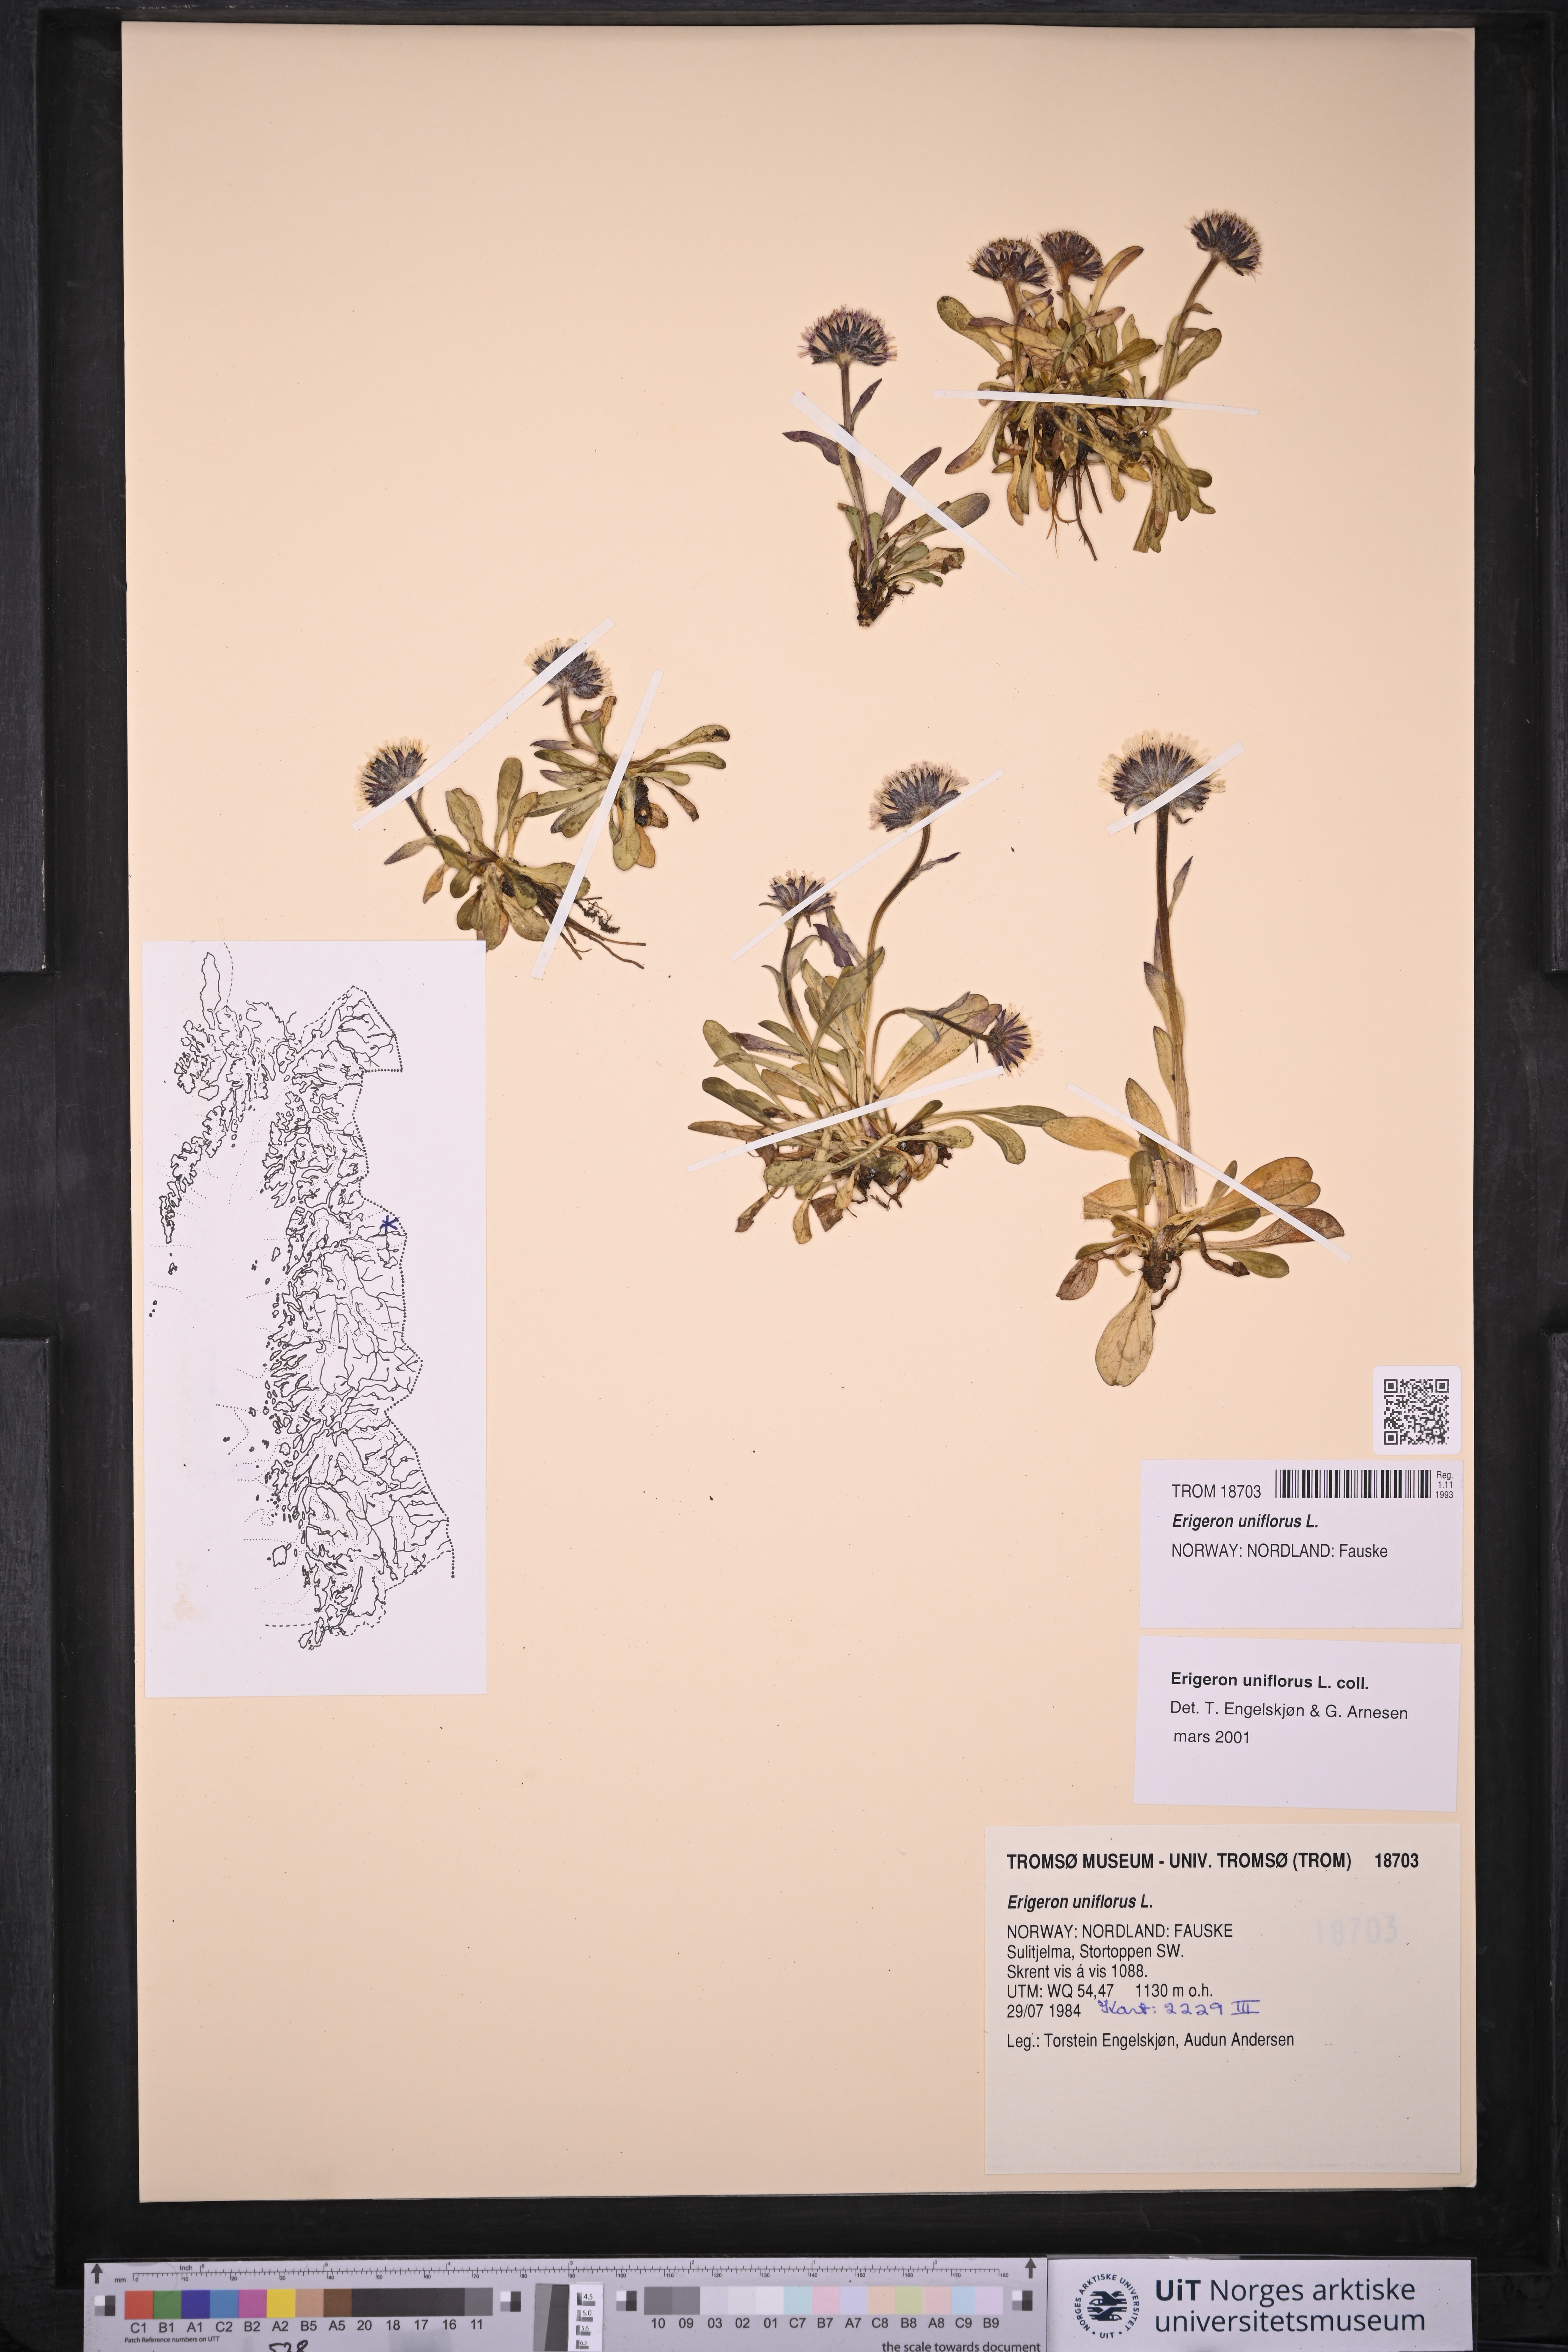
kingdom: Plantae
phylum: Tracheophyta
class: Magnoliopsida
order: Asterales
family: Asteraceae
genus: Erigeron
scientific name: Erigeron uniflorus
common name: Northern daisy
